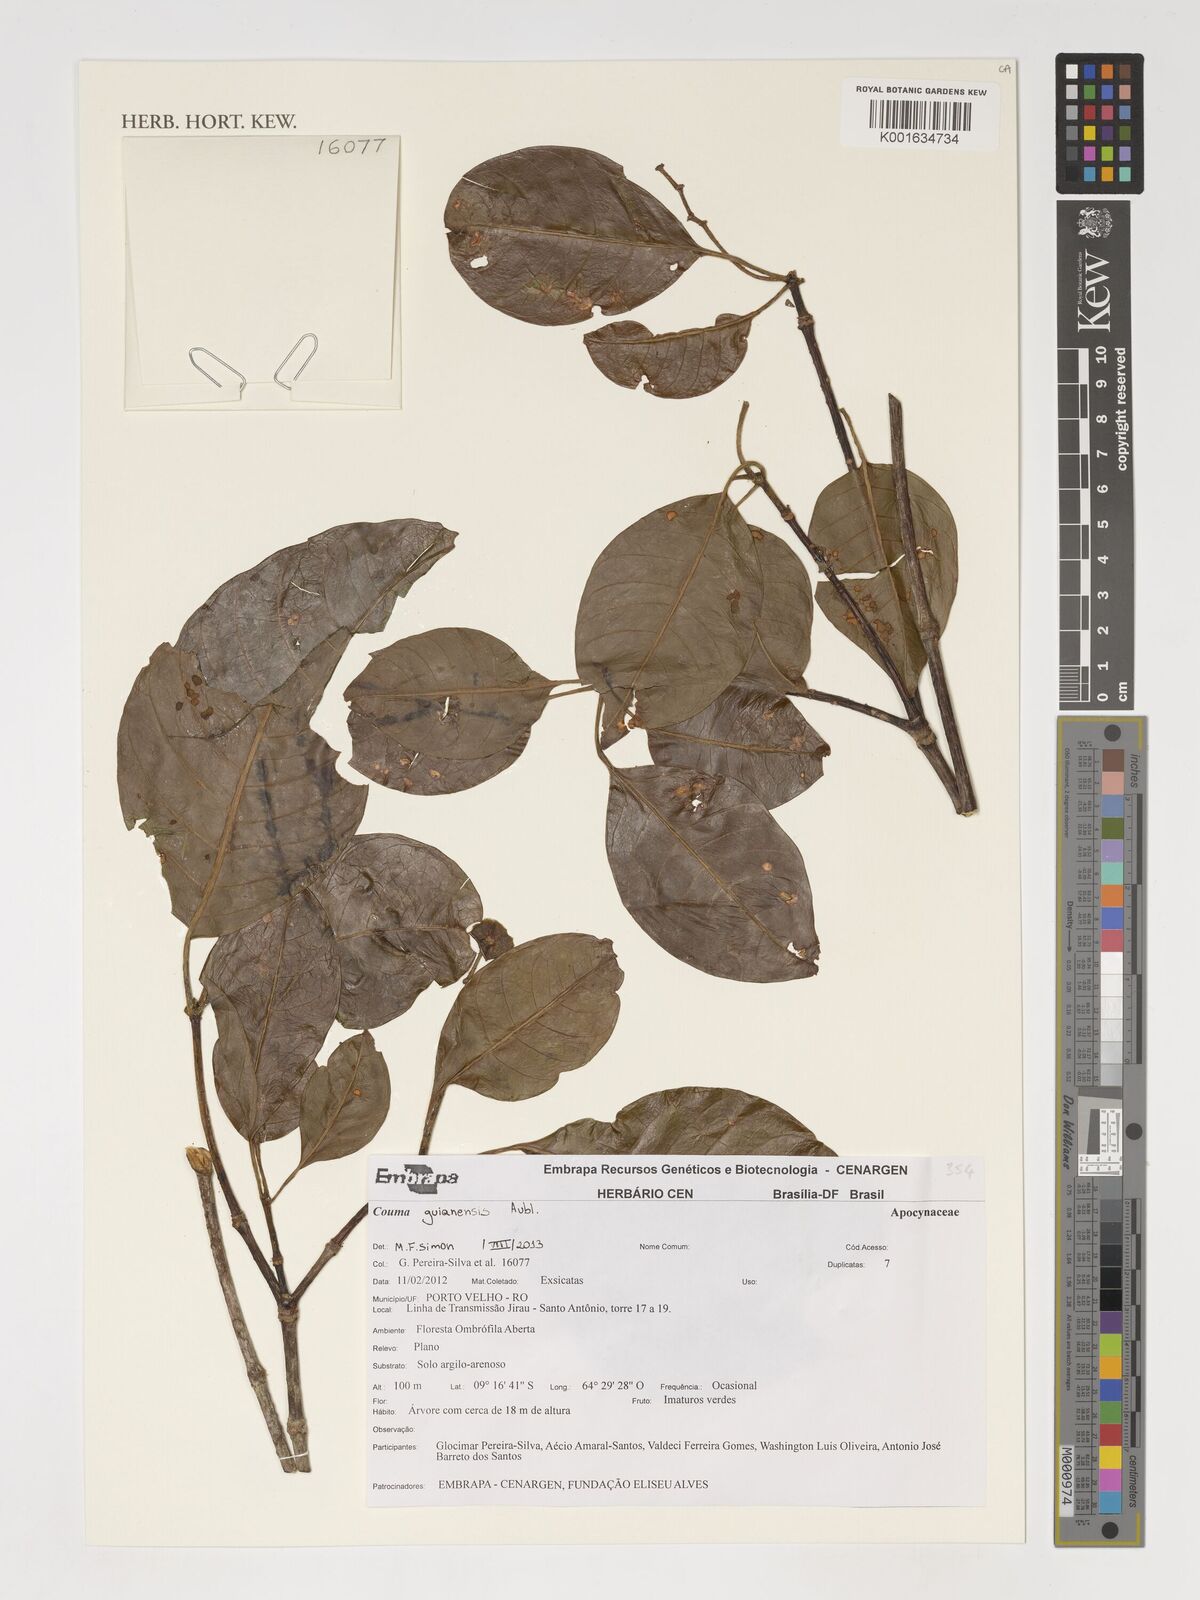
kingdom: Plantae
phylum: Tracheophyta
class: Magnoliopsida
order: Gentianales
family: Apocynaceae
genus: Couma
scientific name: Couma guianensis
